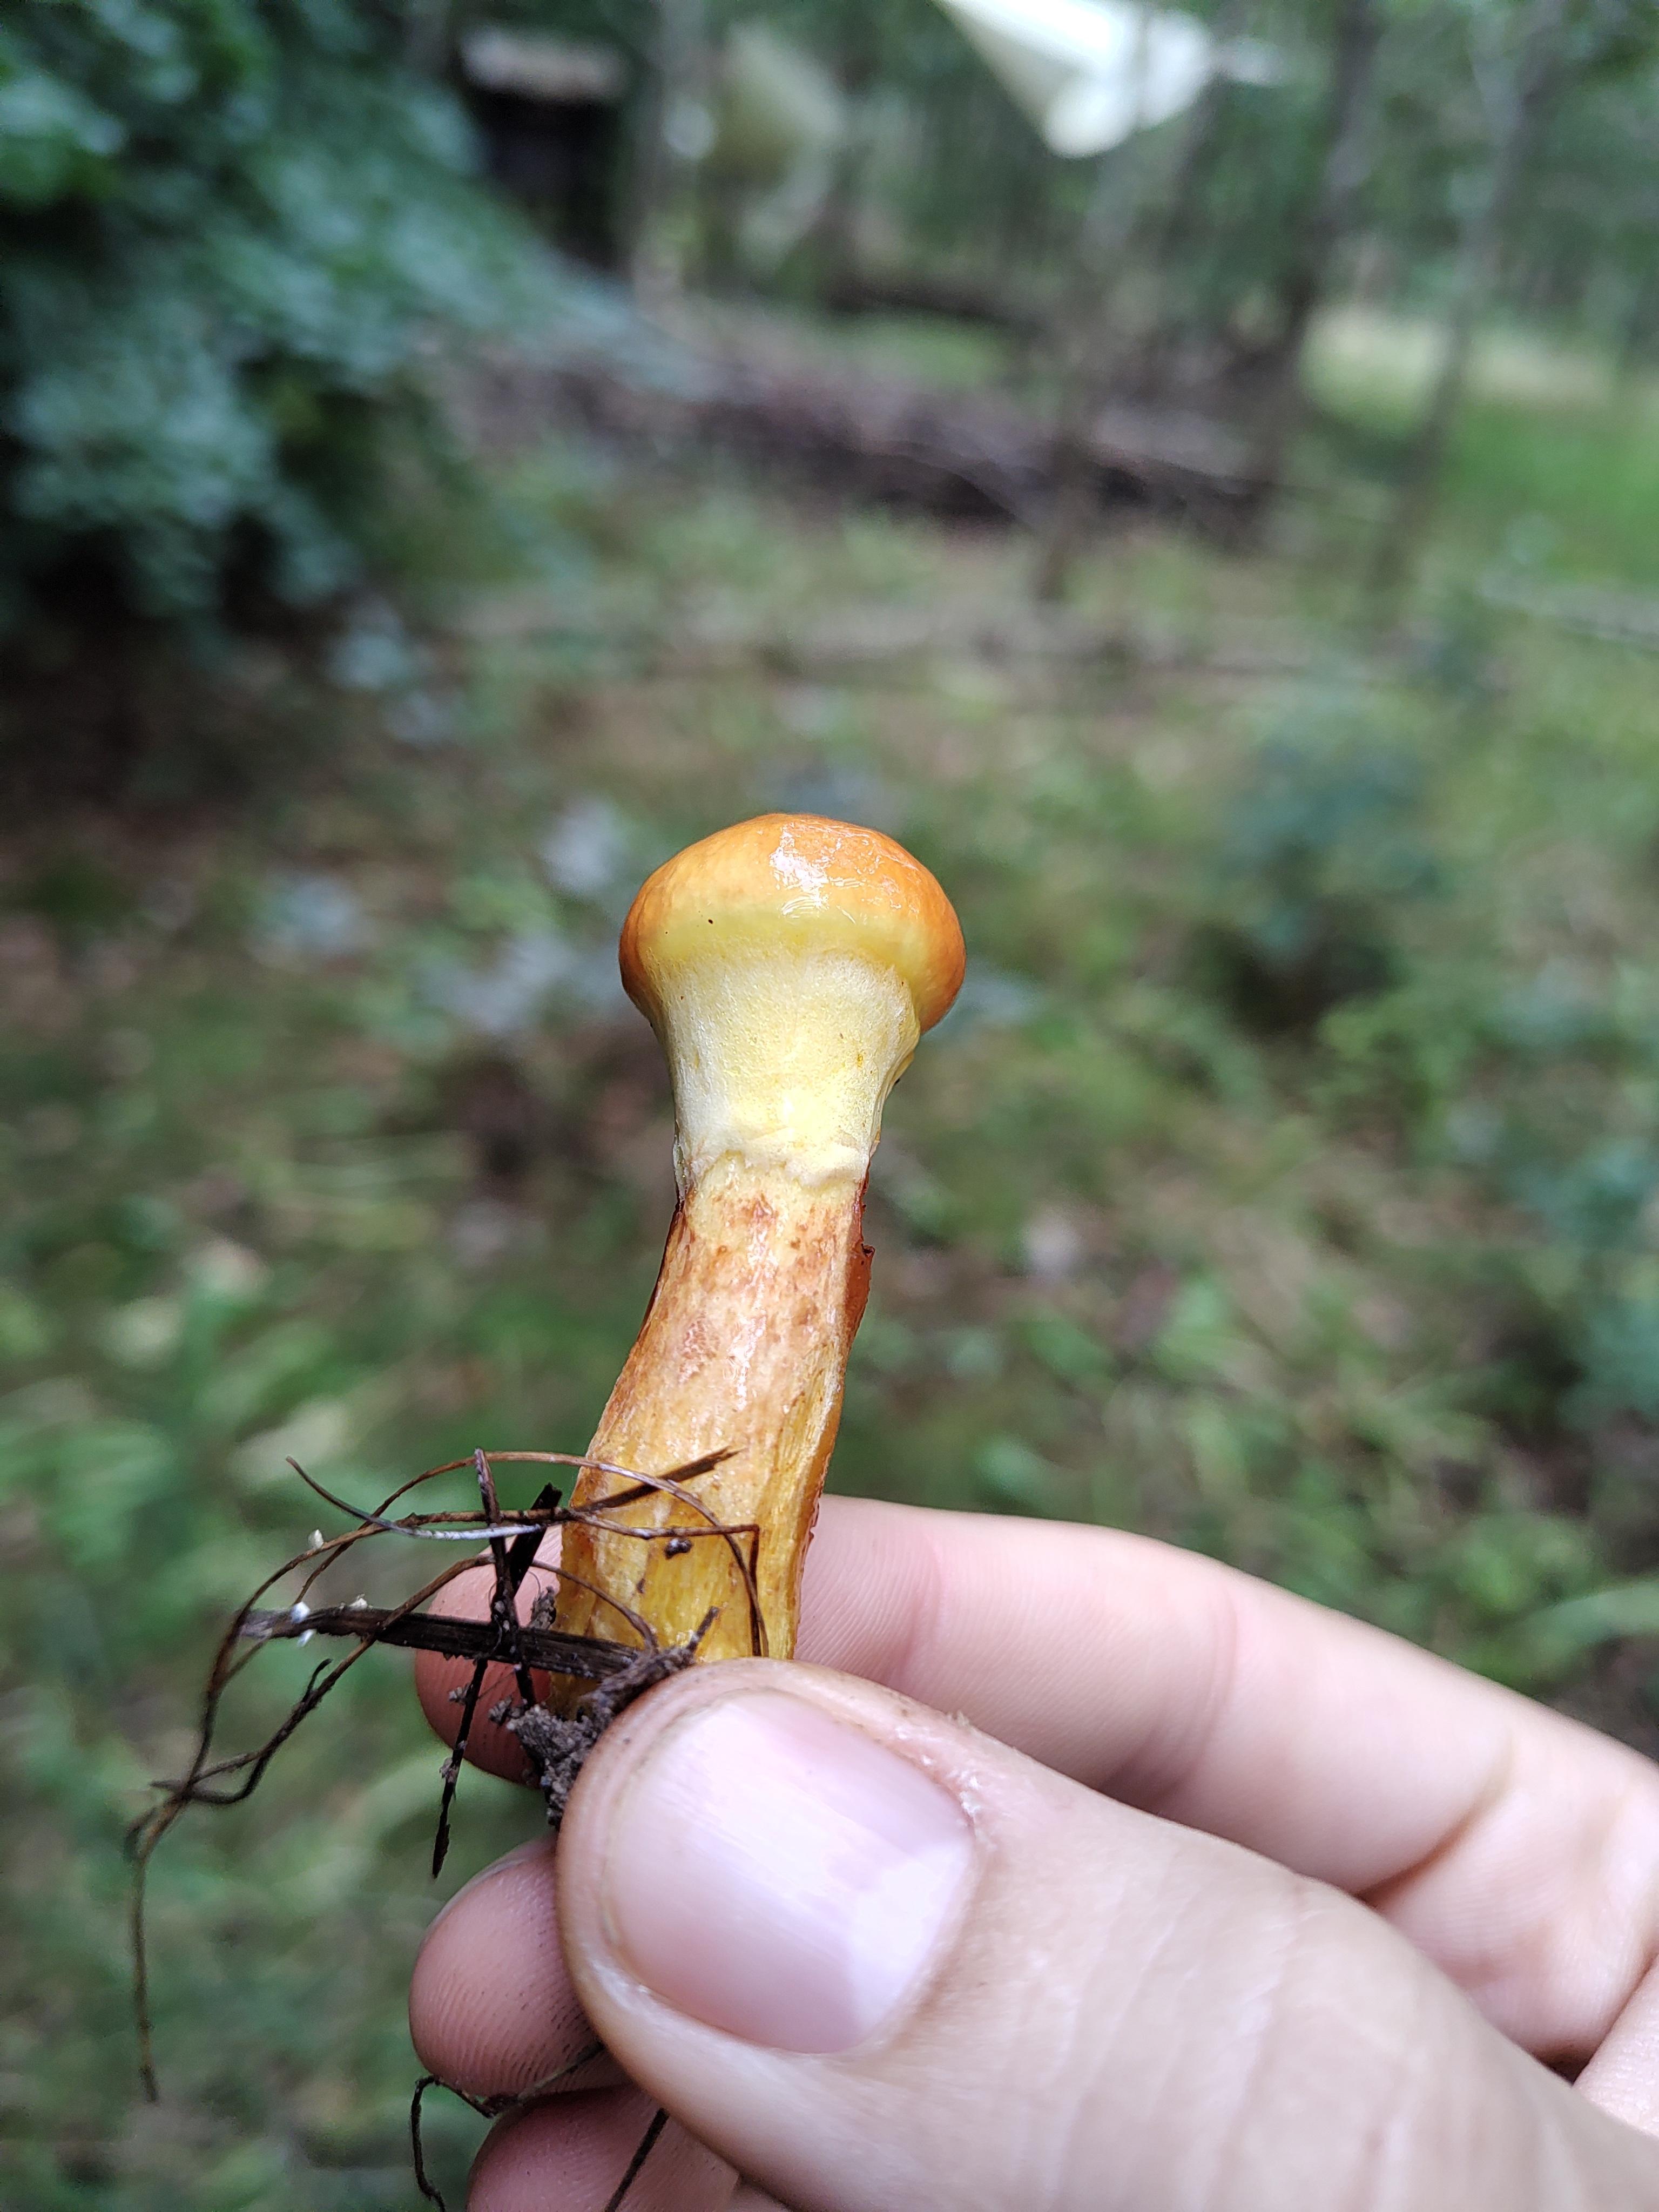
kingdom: Fungi
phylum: Basidiomycota
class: Agaricomycetes
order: Boletales
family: Suillaceae
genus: Suillus
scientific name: Suillus grevillei
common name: lærke-slimrørhat
